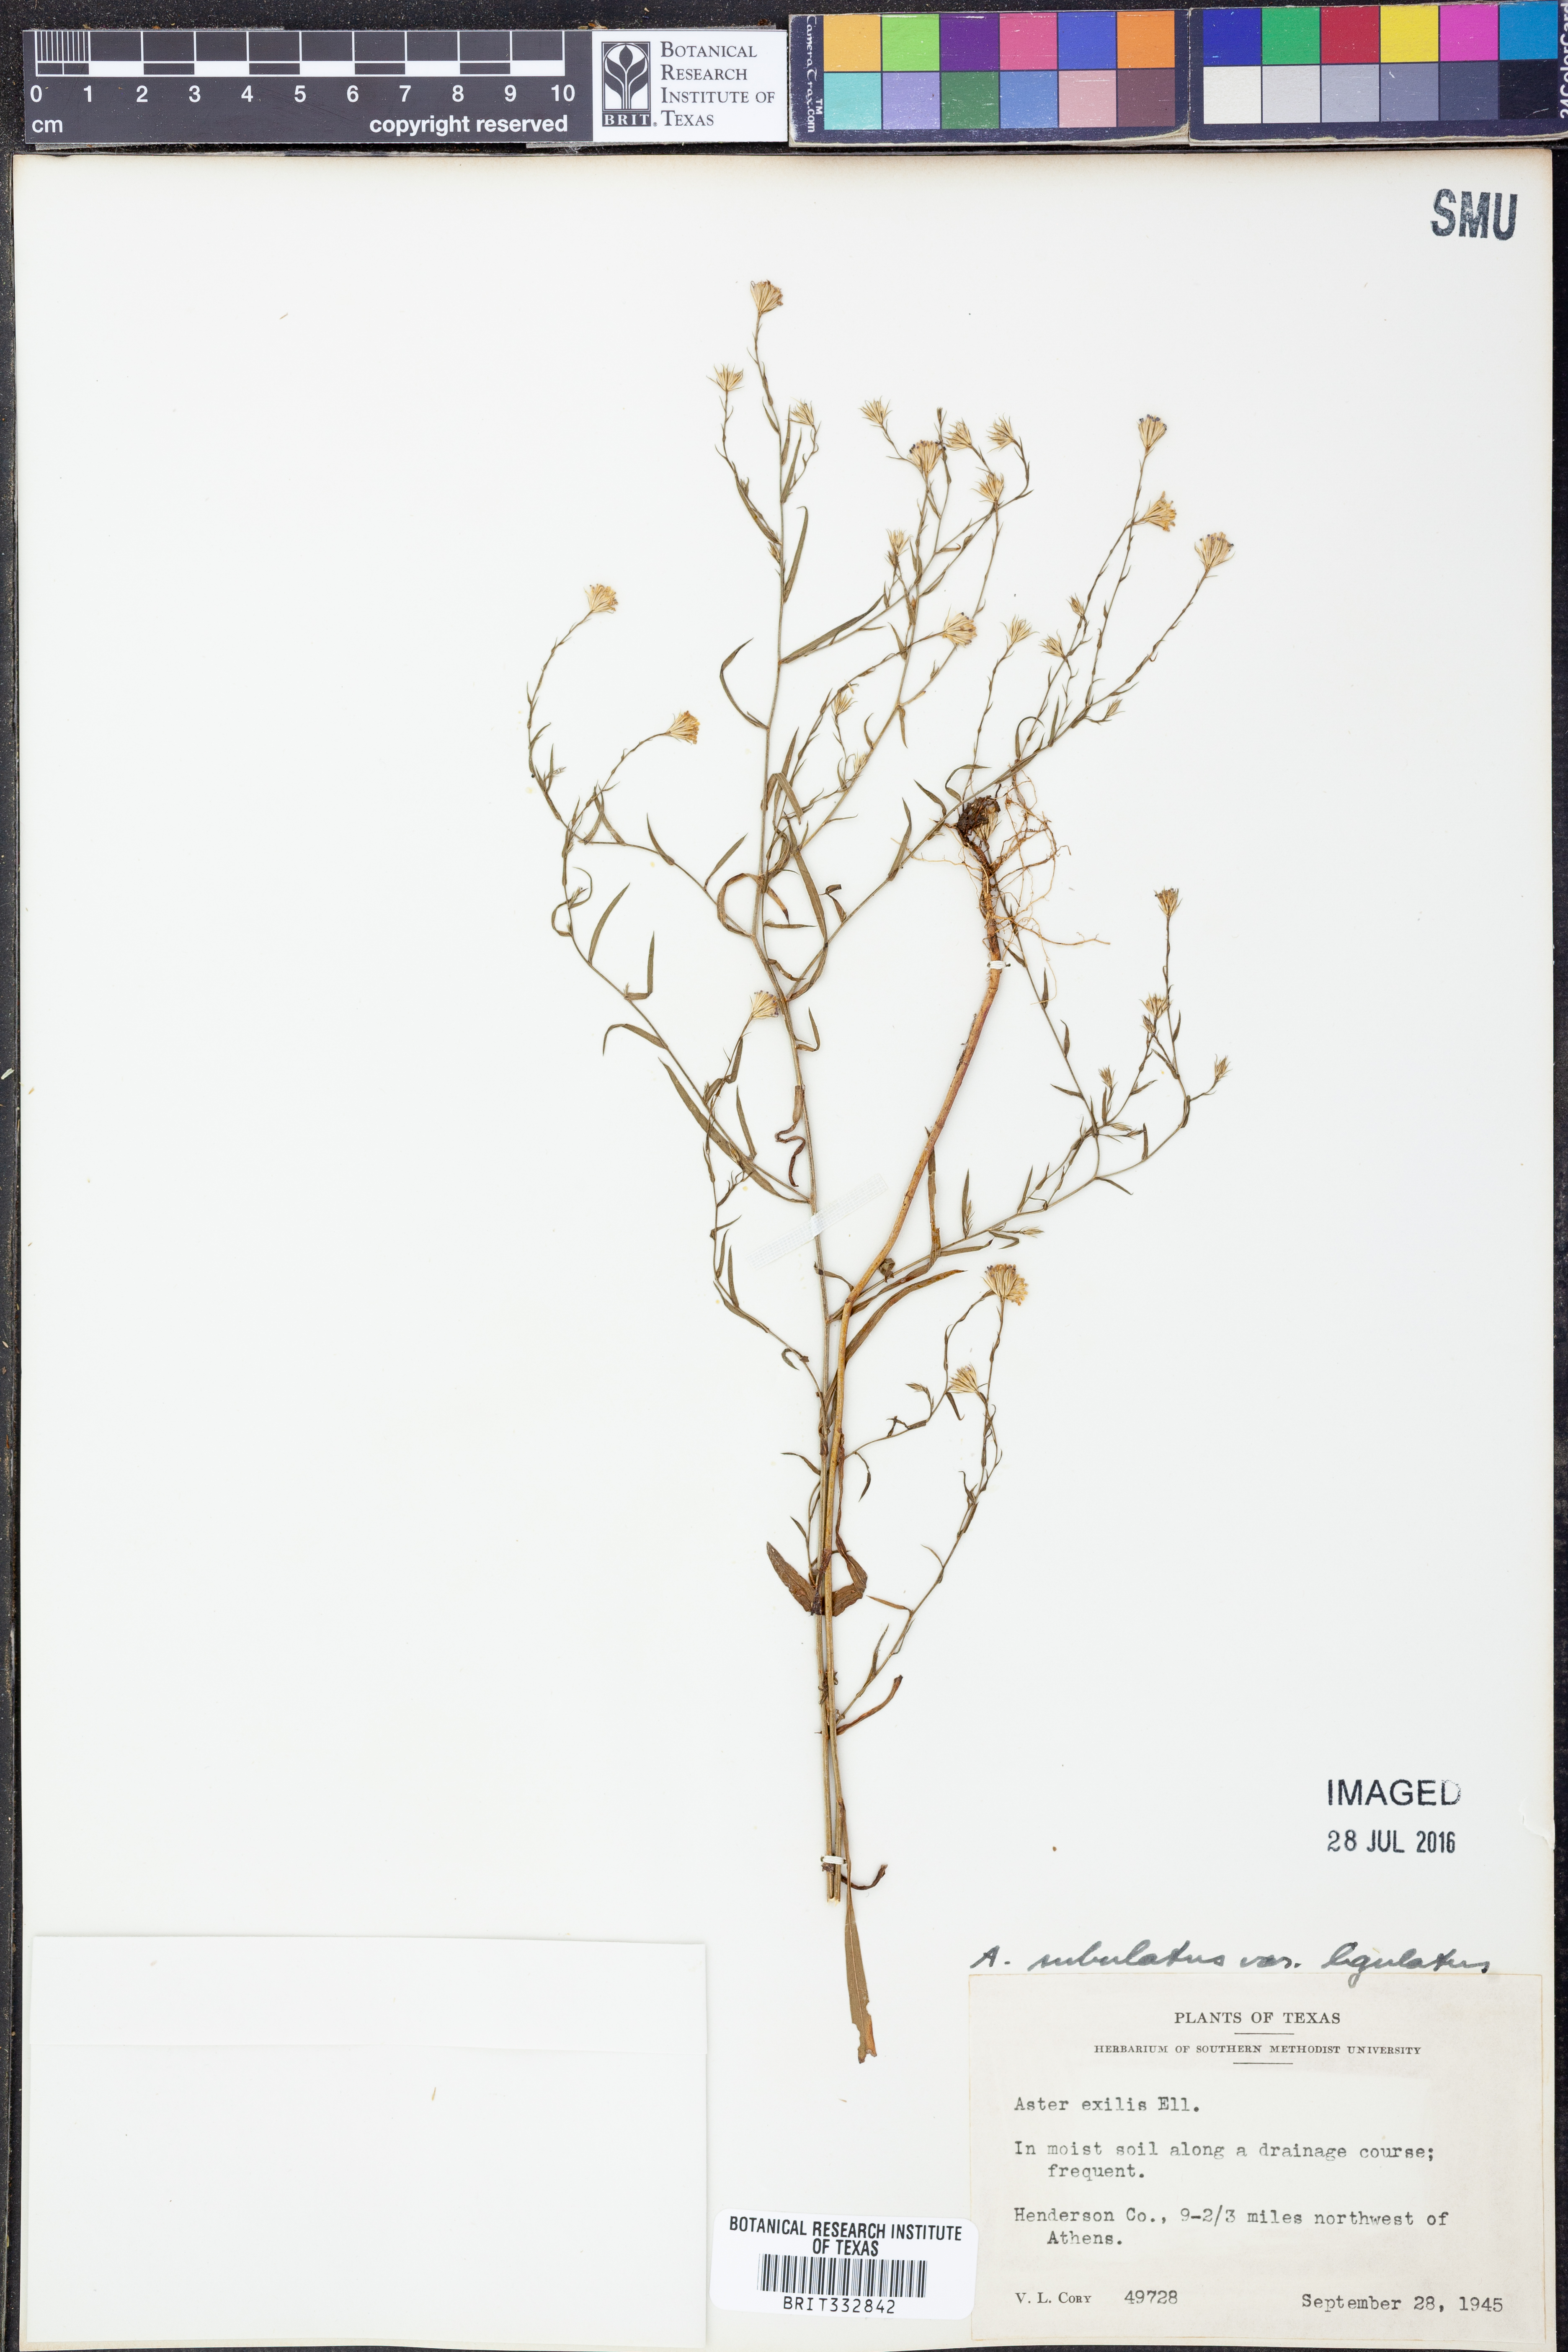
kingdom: Plantae
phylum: Tracheophyta
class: Magnoliopsida
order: Asterales
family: Asteraceae
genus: Symphyotrichum
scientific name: Symphyotrichum divaricatum
